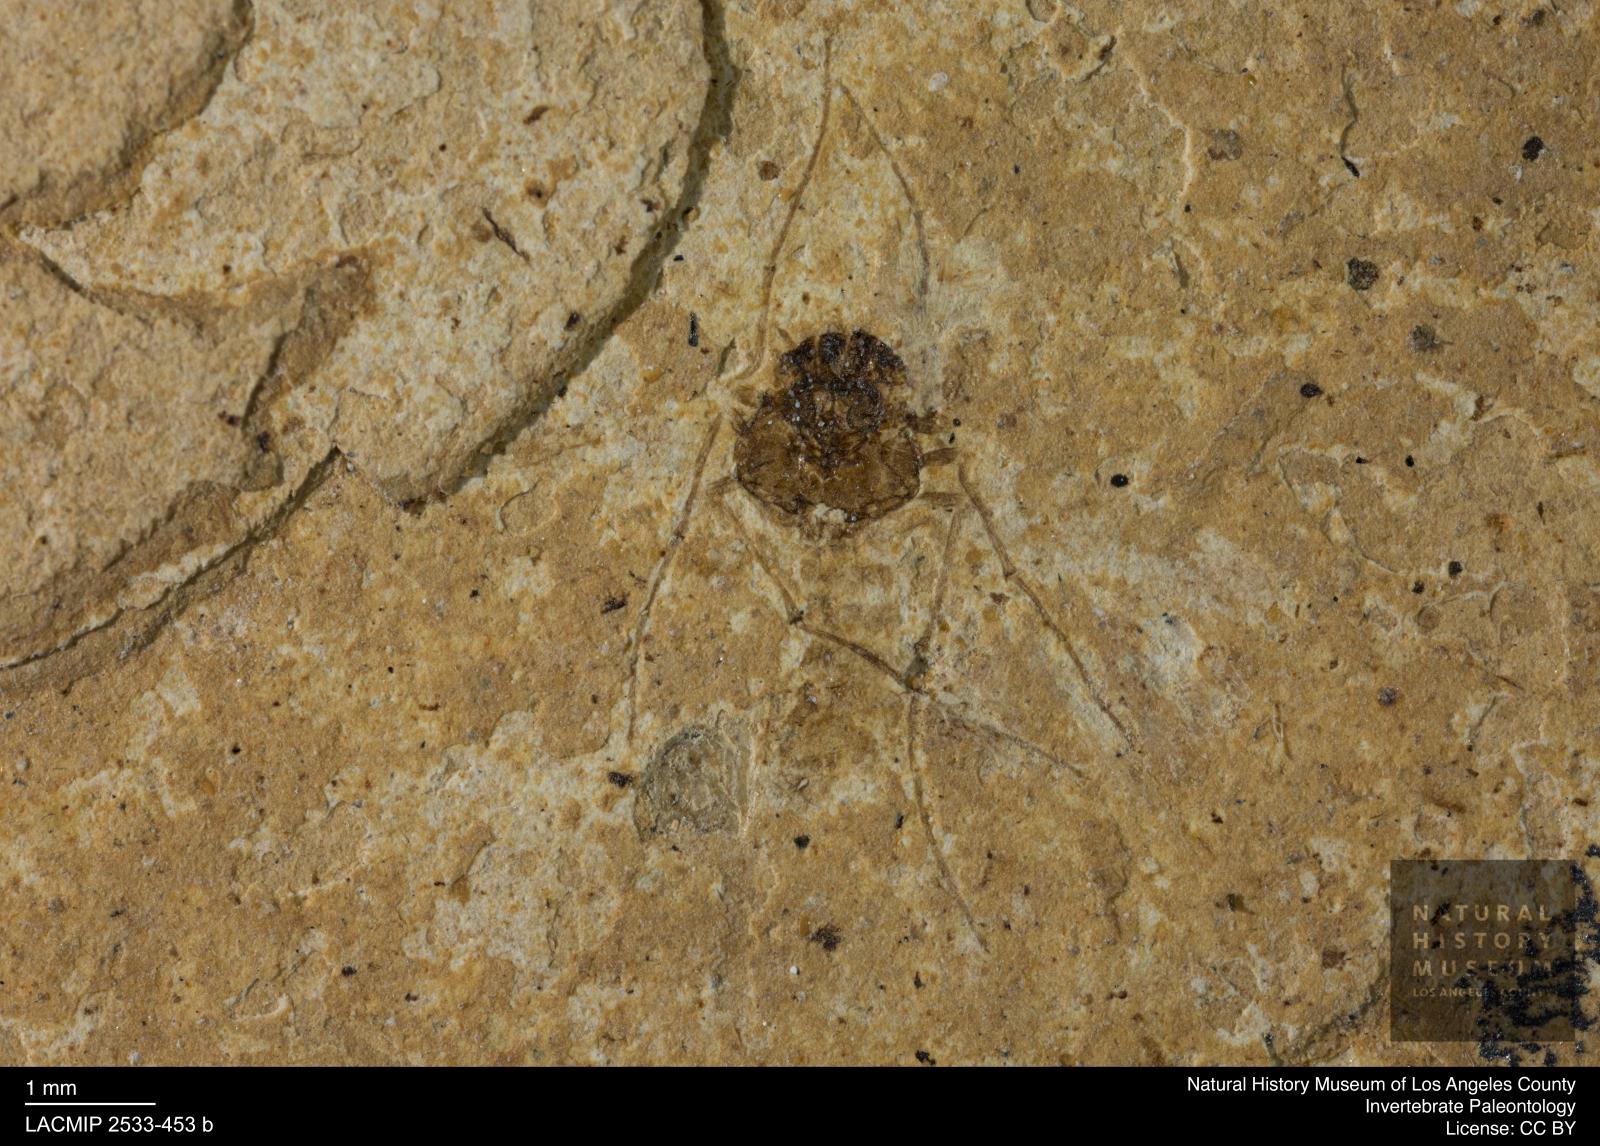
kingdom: Animalia
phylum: Arthropoda
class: Insecta
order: Diptera
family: Chironomidae
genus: Tanypus
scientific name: Tanypus thienemanni
